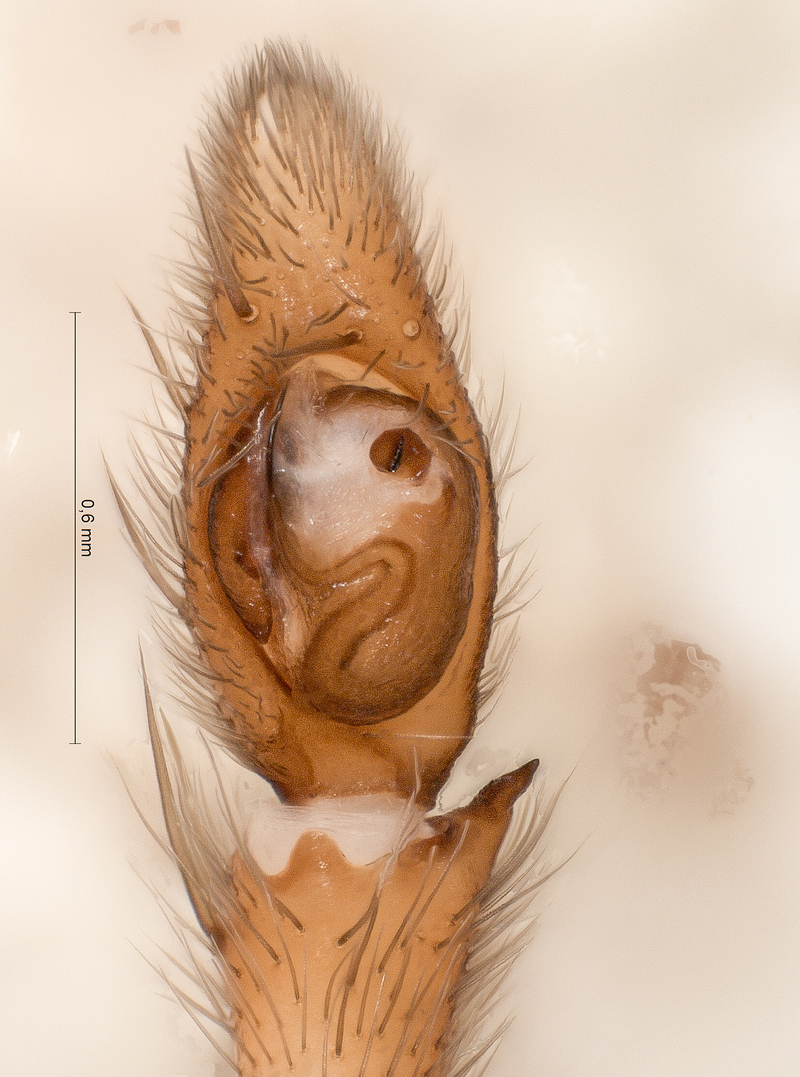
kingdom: Animalia
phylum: Arthropoda
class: Arachnida
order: Araneae
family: Gnaphosidae
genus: Drassodes
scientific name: Drassodes cupreus
